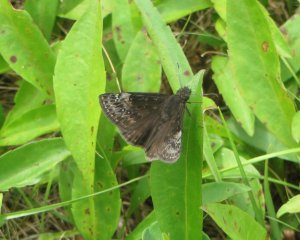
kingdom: Animalia
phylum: Arthropoda
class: Insecta
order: Lepidoptera
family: Hesperiidae
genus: Gesta
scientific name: Gesta
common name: Wild Indigo Duskywing
